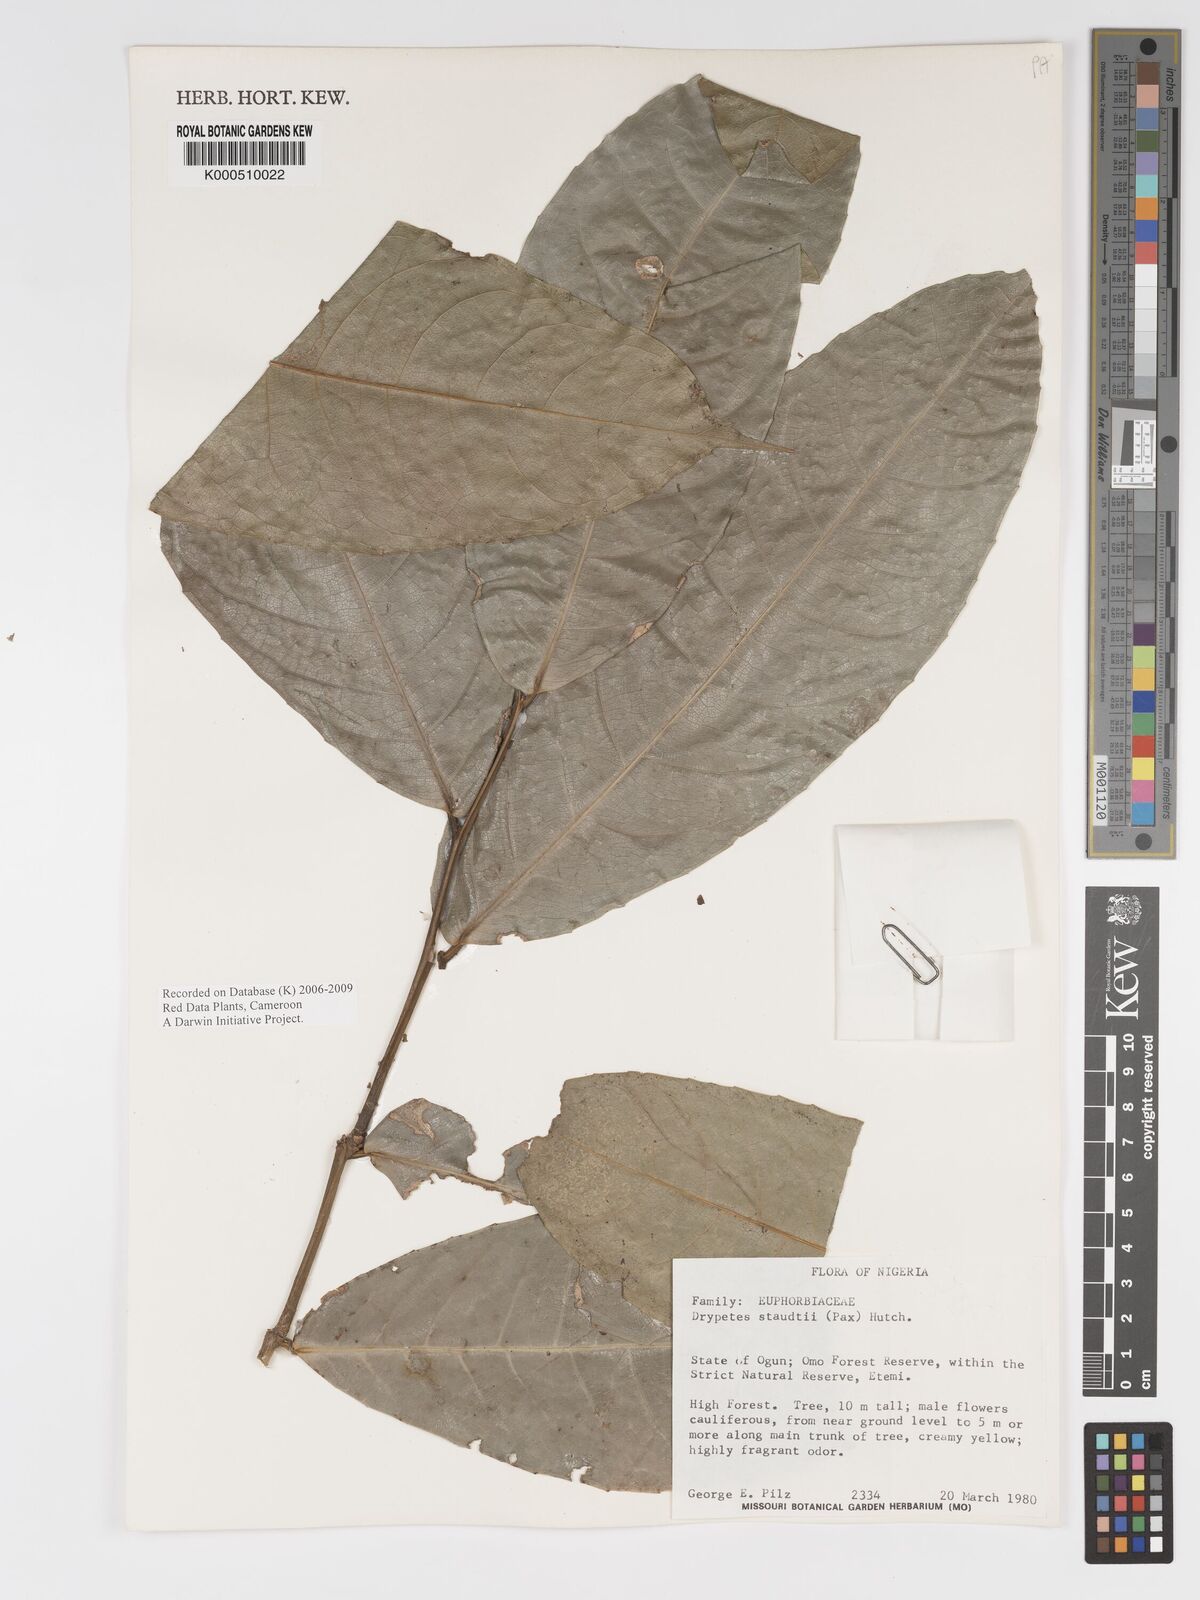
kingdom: Plantae
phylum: Tracheophyta
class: Magnoliopsida
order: Malpighiales
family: Putranjivaceae
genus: Drypetes
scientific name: Drypetes staudtii
